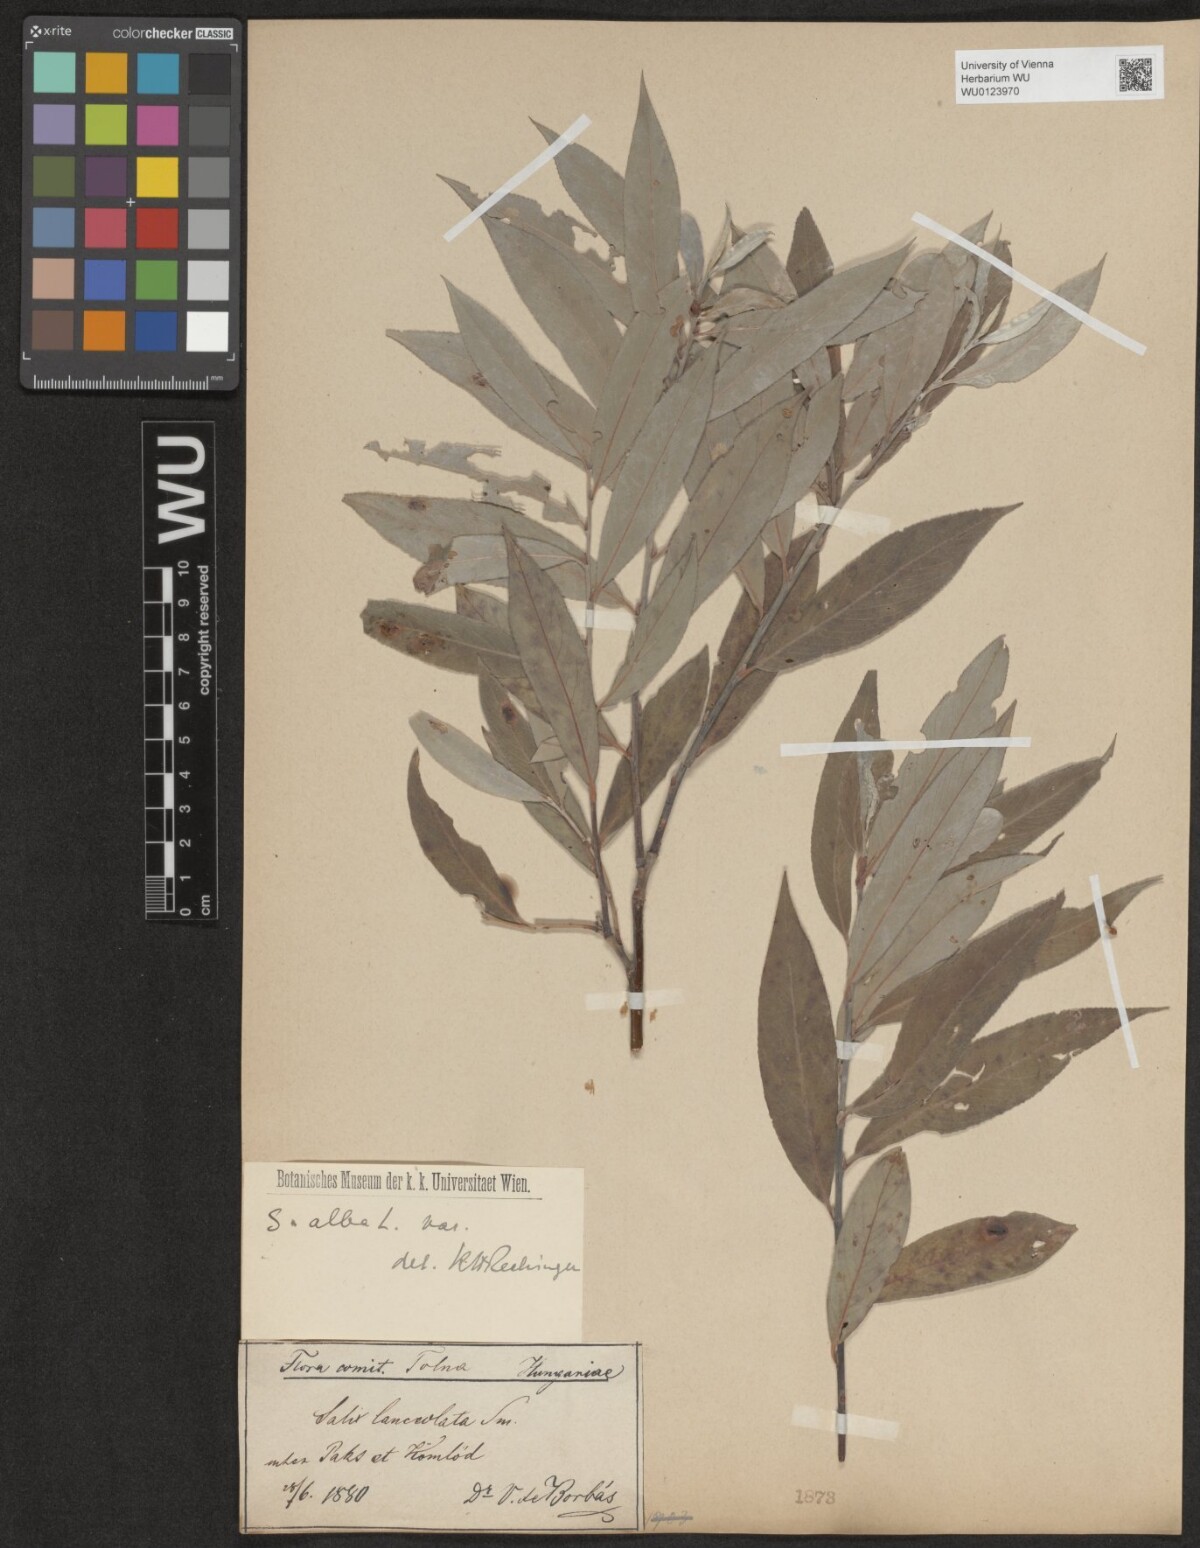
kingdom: Plantae
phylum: Tracheophyta
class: Magnoliopsida
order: Malpighiales
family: Salicaceae
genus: Salix
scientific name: Salix alba
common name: White willow
